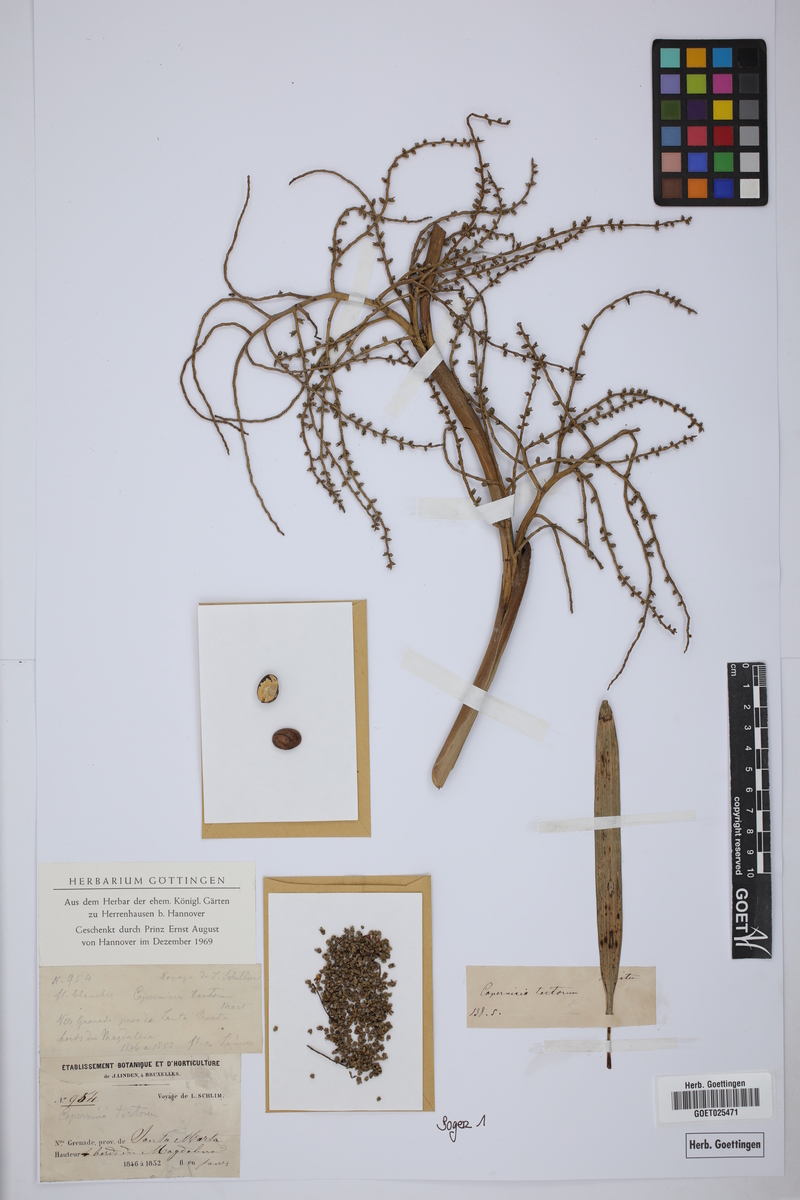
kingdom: Plantae
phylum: Tracheophyta
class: Liliopsida
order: Arecales
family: Arecaceae
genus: Copernicia
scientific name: Copernicia tectorum
